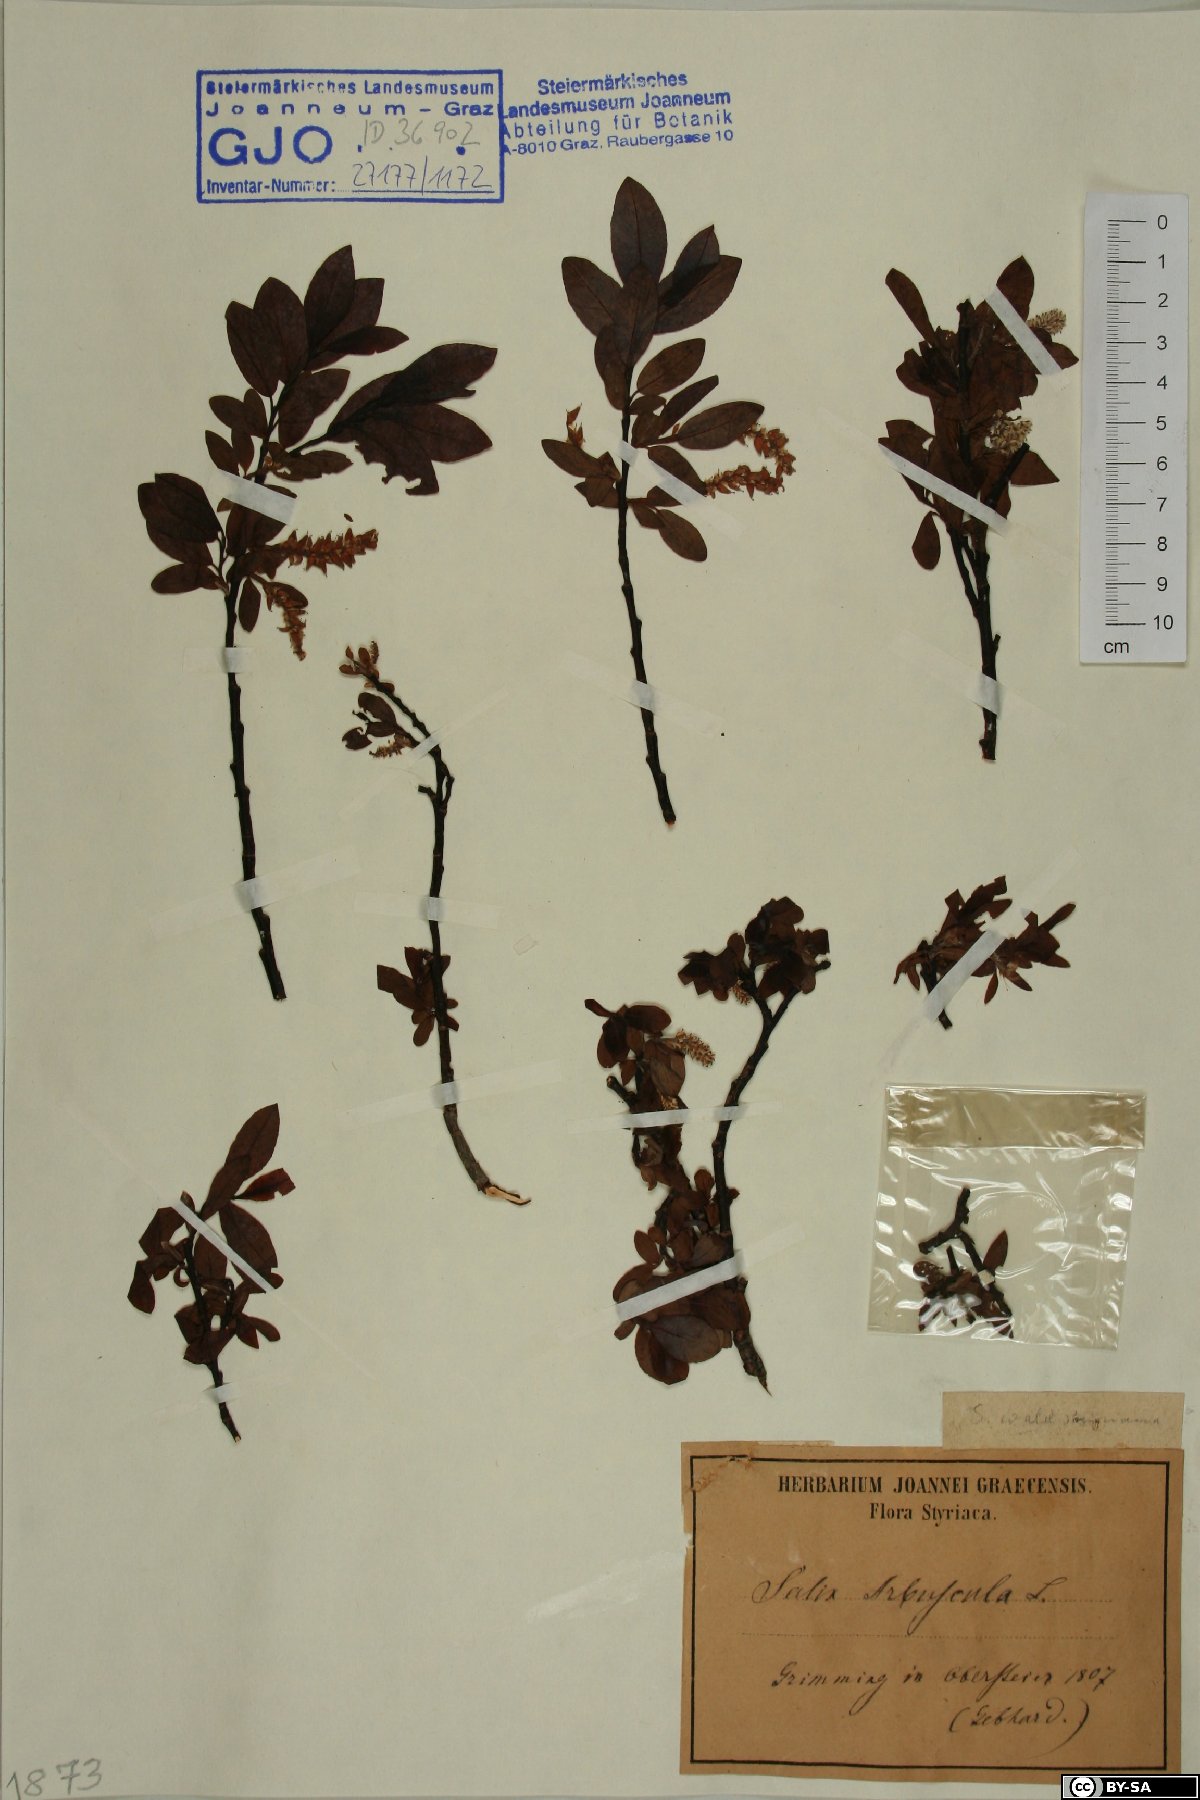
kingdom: Plantae
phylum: Tracheophyta
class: Magnoliopsida
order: Malpighiales
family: Salicaceae
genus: Salix
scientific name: Salix waldsteiniana
